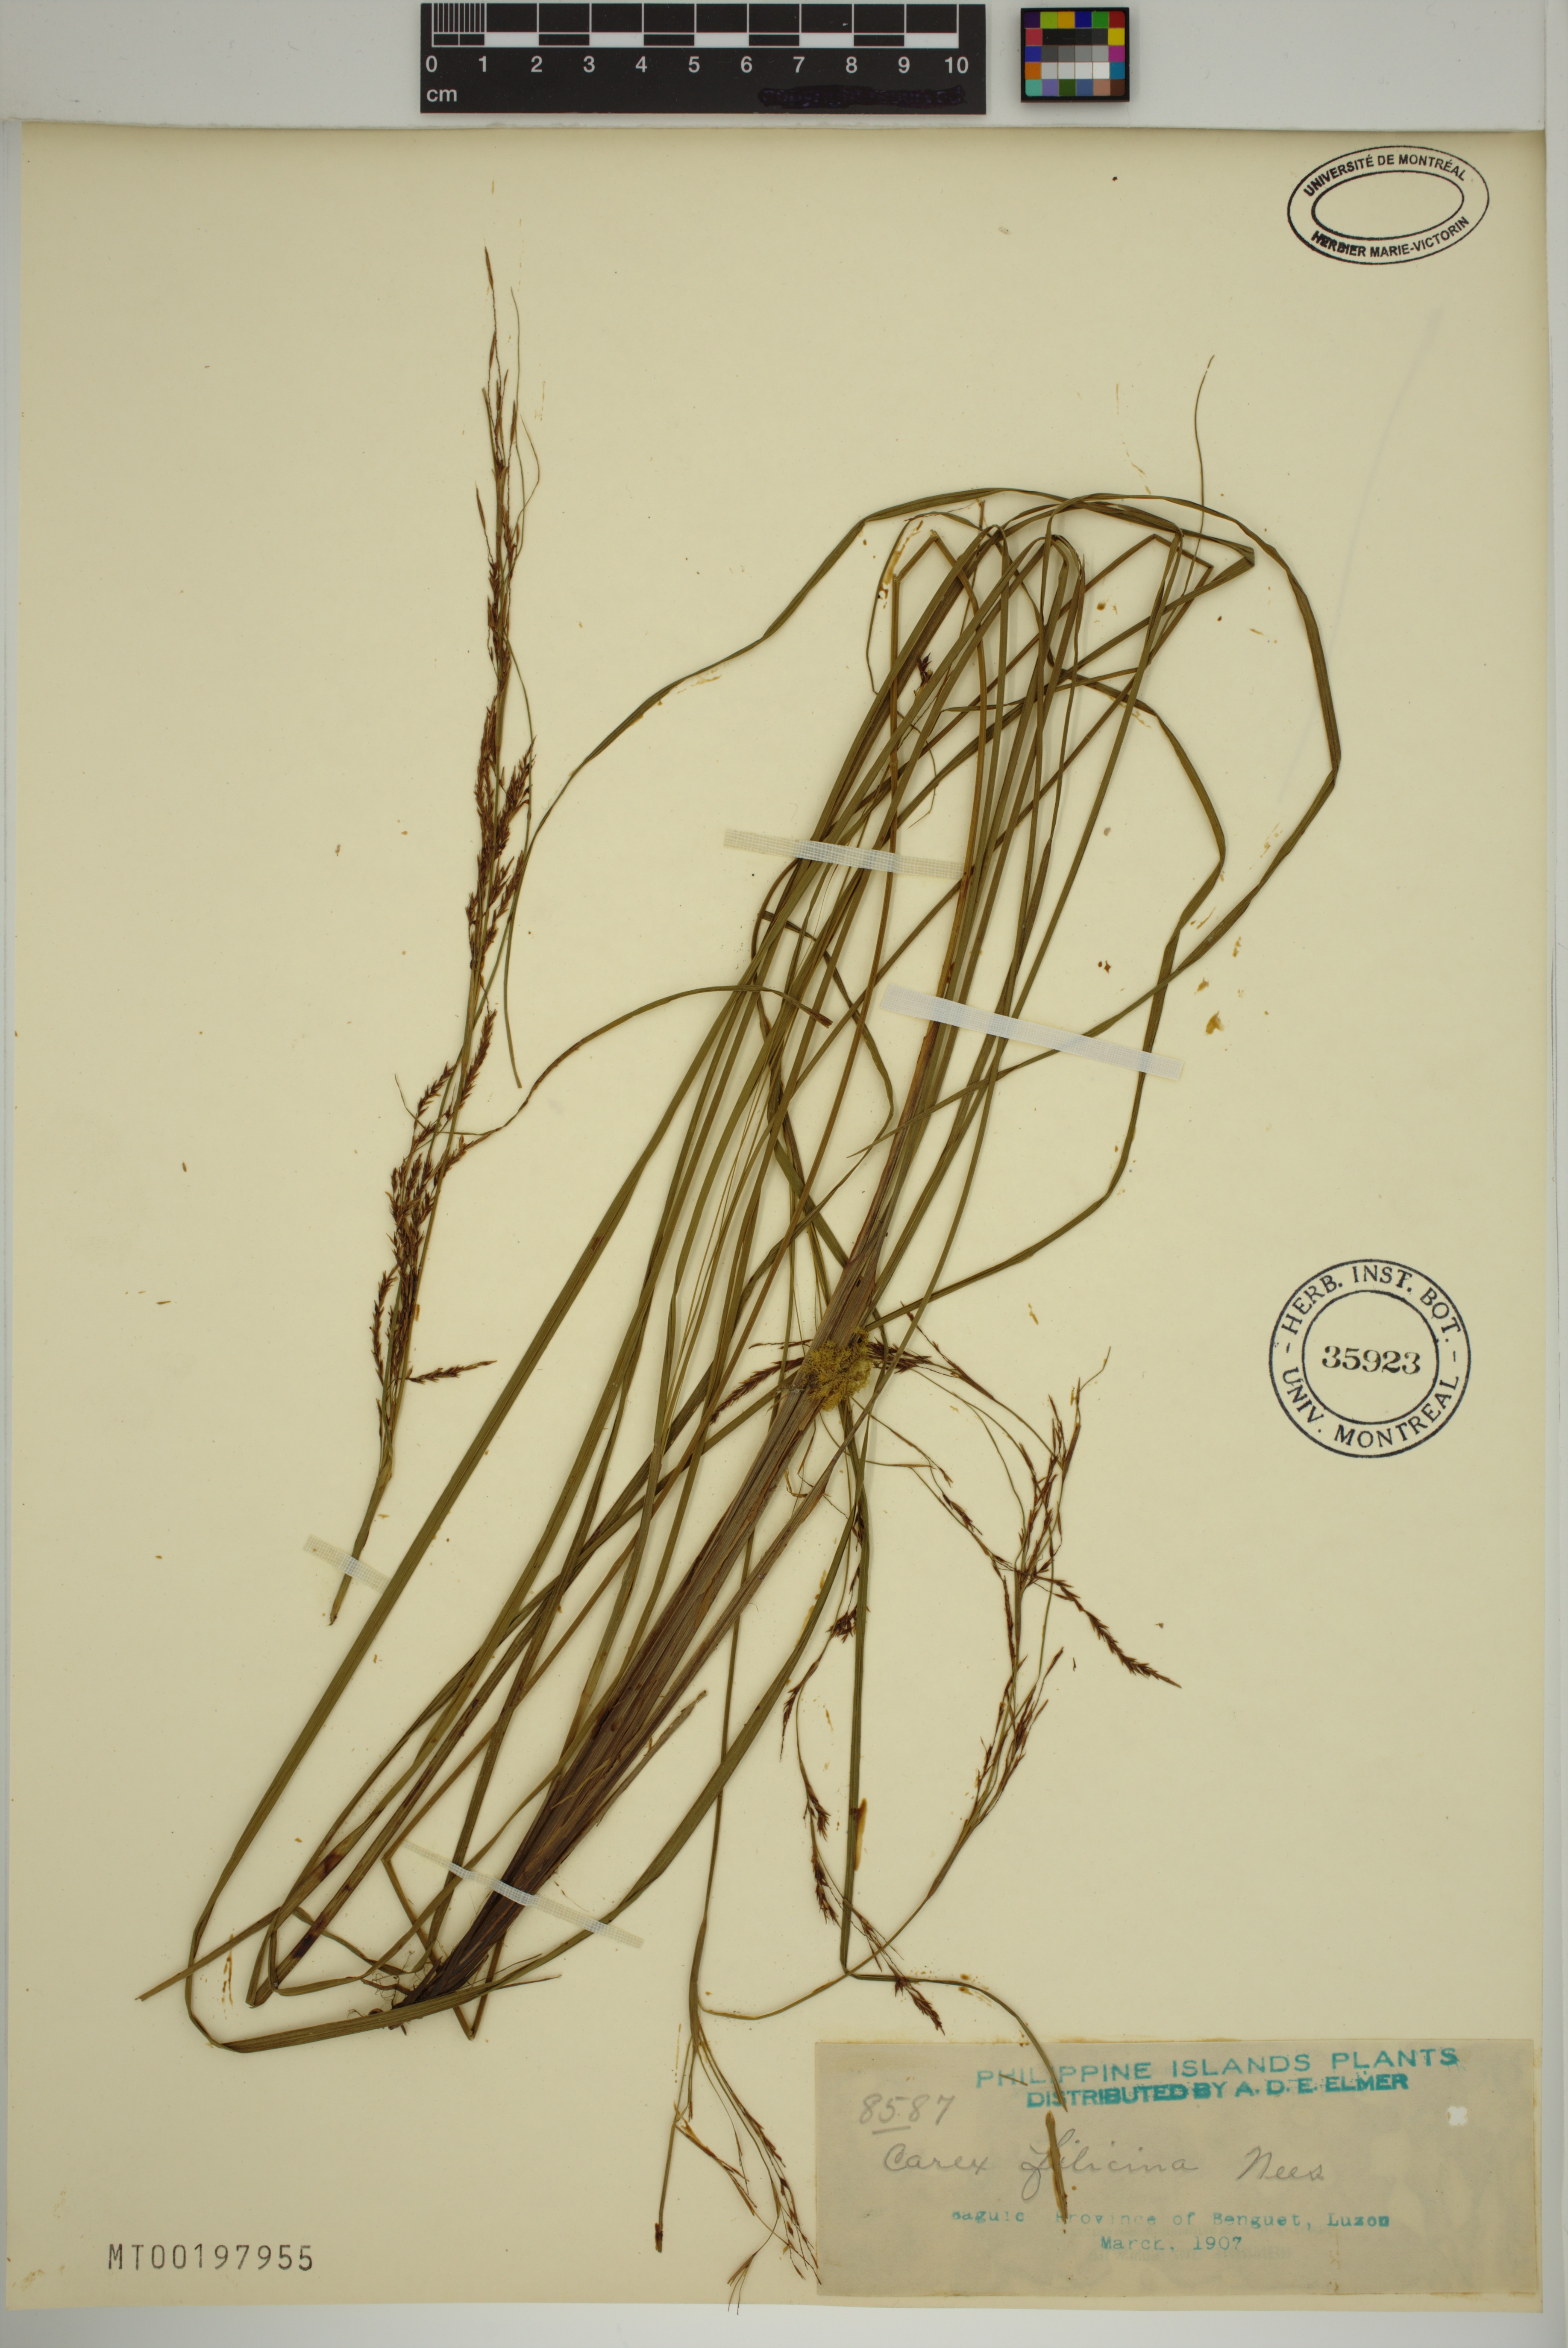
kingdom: Plantae
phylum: Tracheophyta
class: Liliopsida
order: Poales
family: Cyperaceae
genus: Carex
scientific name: Carex filicina
